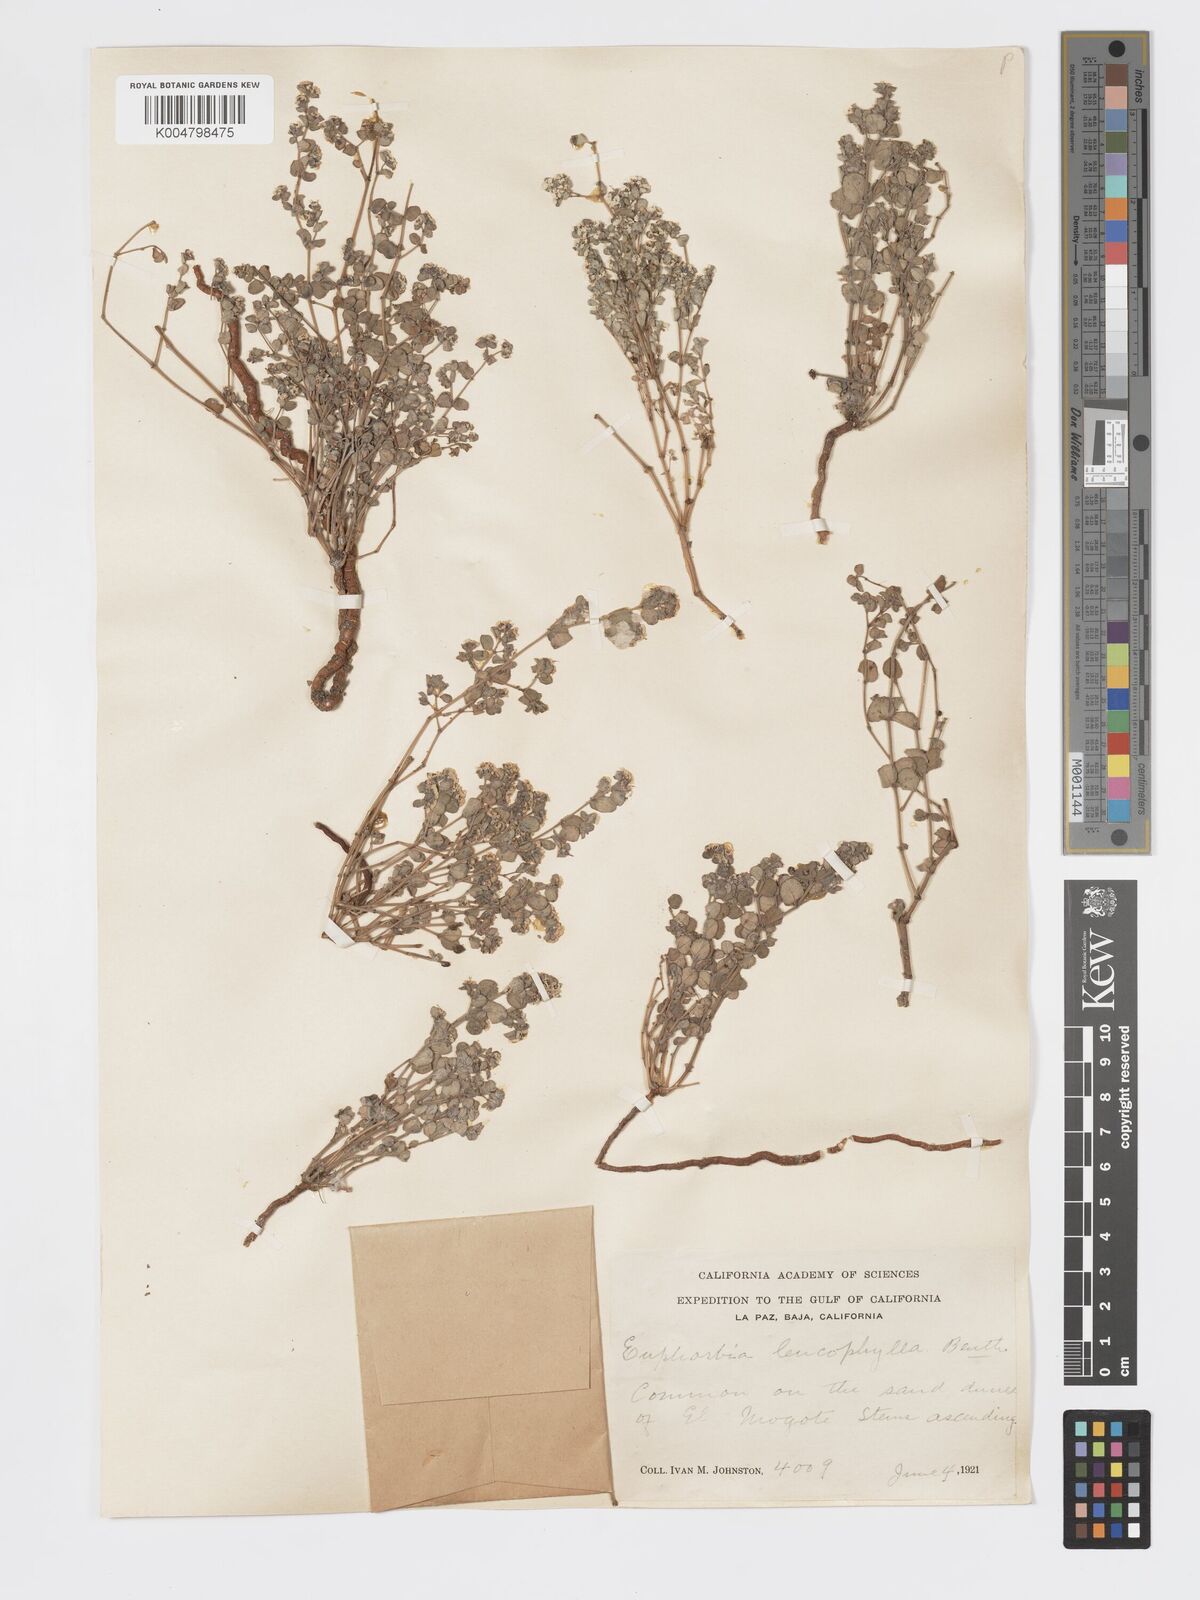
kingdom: Plantae
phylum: Tracheophyta
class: Magnoliopsida
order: Malpighiales
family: Euphorbiaceae
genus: Euphorbia
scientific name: Euphorbia leucophylla
